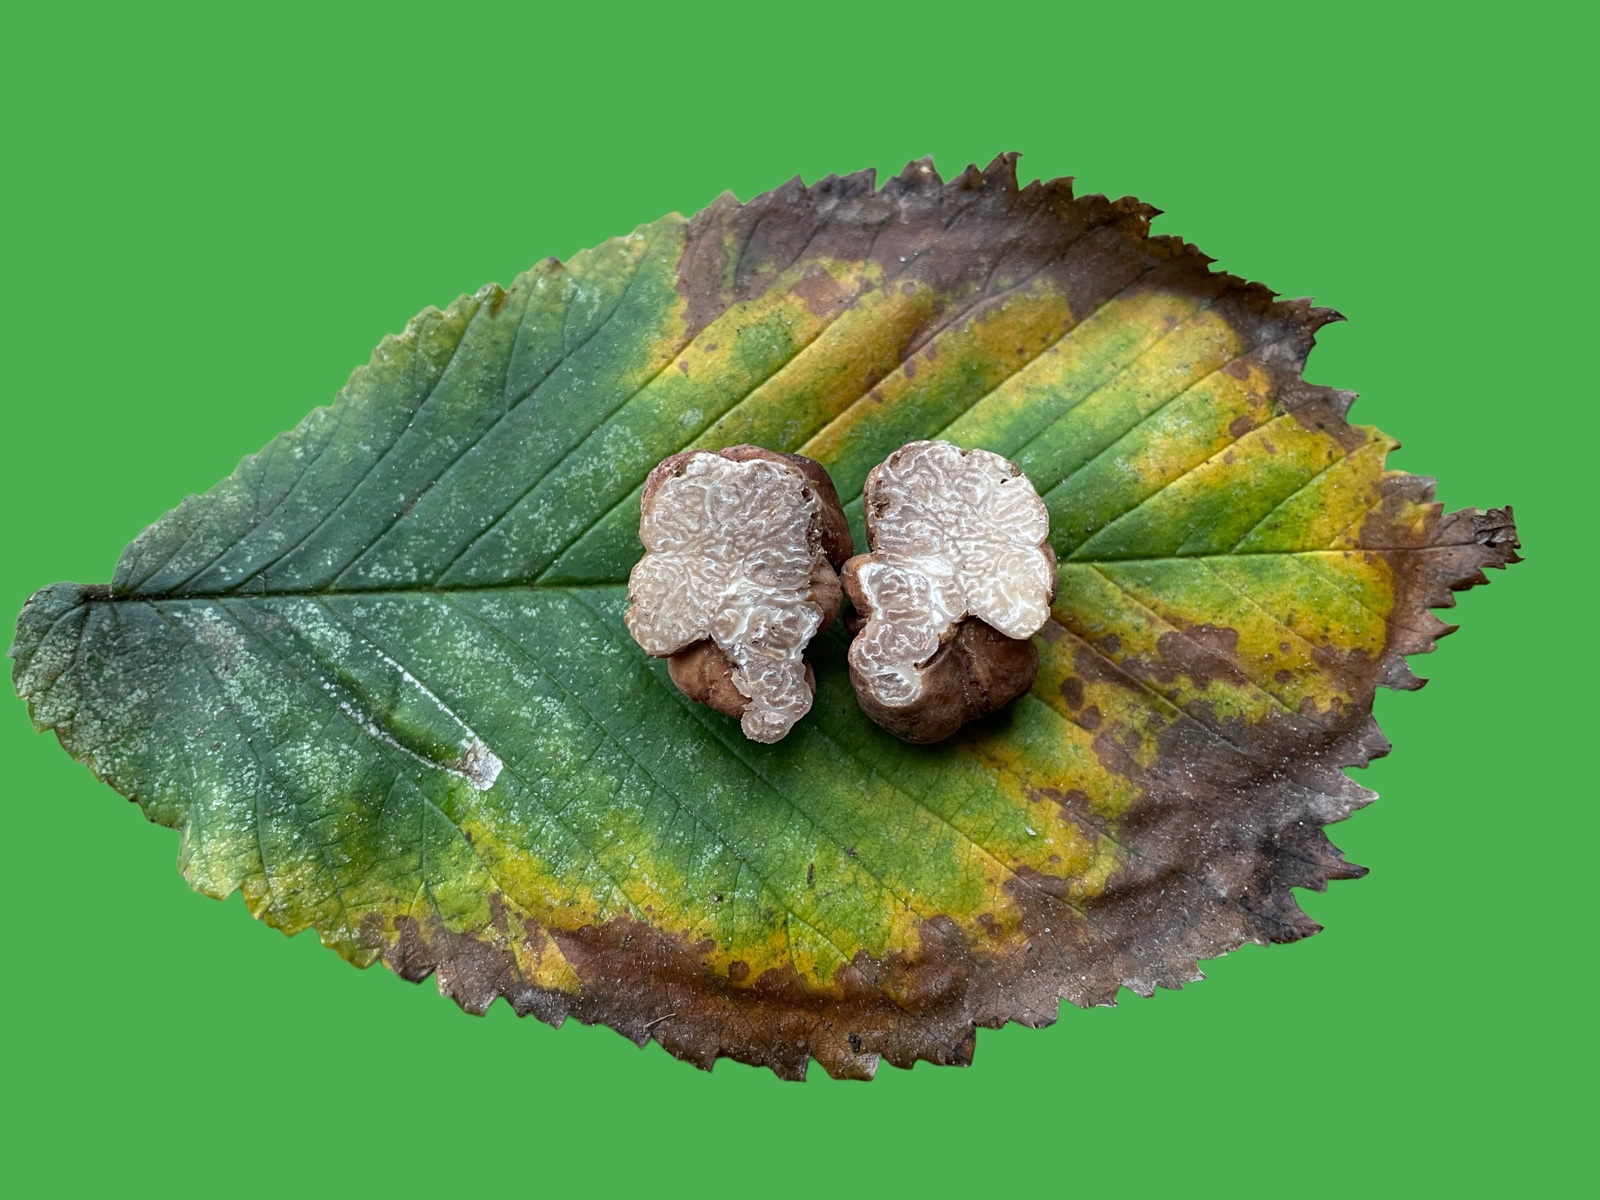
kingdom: Fungi
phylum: Ascomycota
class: Pezizomycetes
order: Pezizales
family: Tuberaceae
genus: Tuber
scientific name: Tuber rufum
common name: Red truffle
